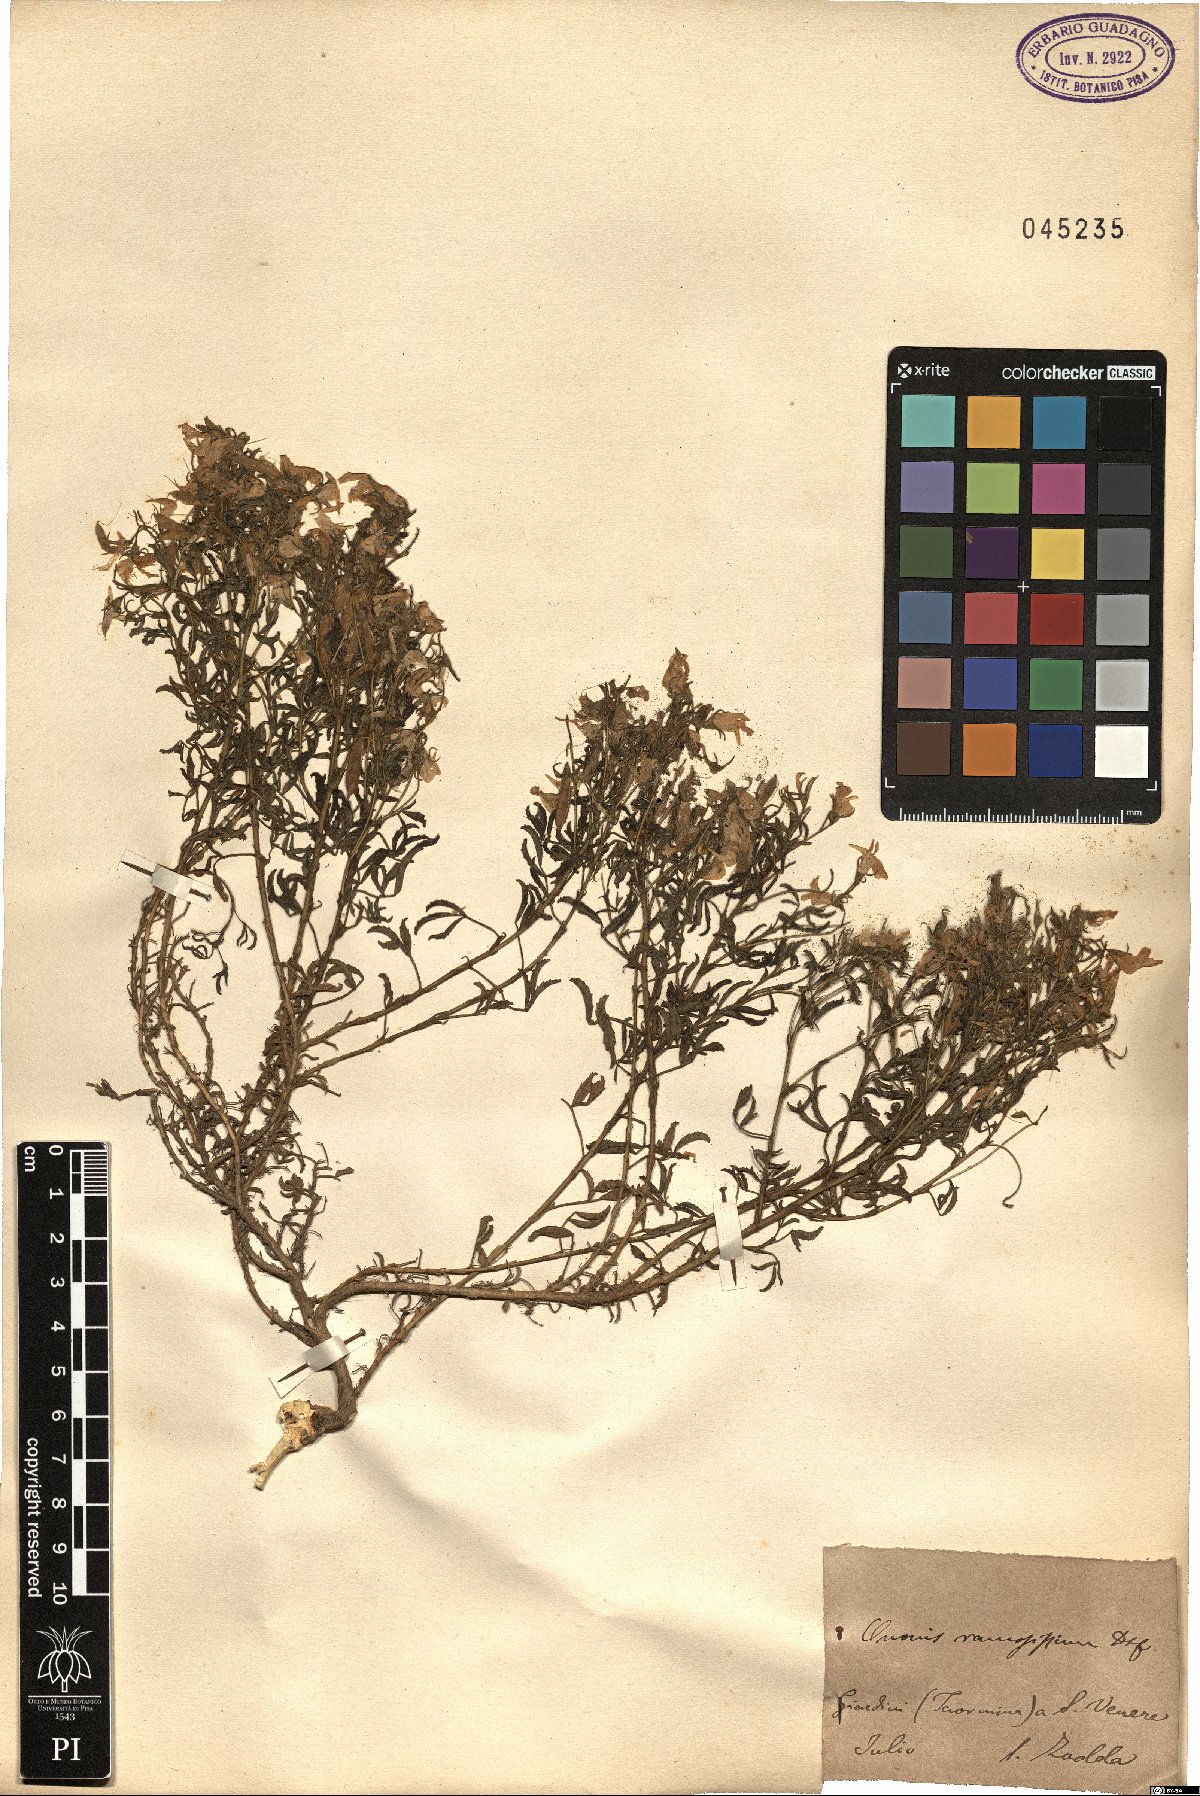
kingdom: Plantae
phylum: Tracheophyta
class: Magnoliopsida
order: Fabales
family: Fabaceae
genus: Ononis
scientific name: Ononis ramosissima
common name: Bush restharrow
